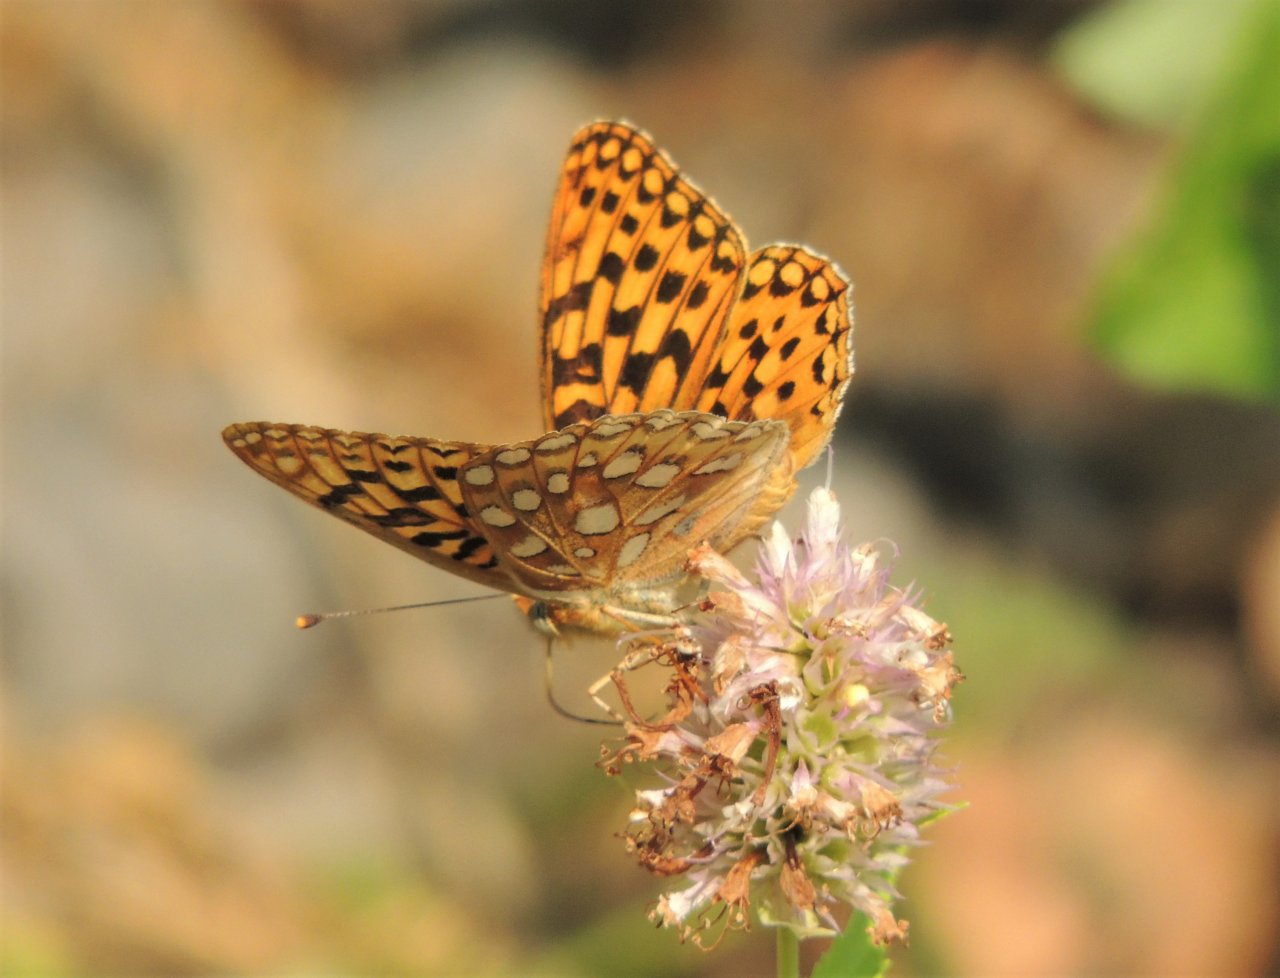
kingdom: Animalia
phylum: Arthropoda
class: Insecta
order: Lepidoptera
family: Nymphalidae
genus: Speyeria
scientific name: Speyeria zerene
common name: Zerene Fritillary
